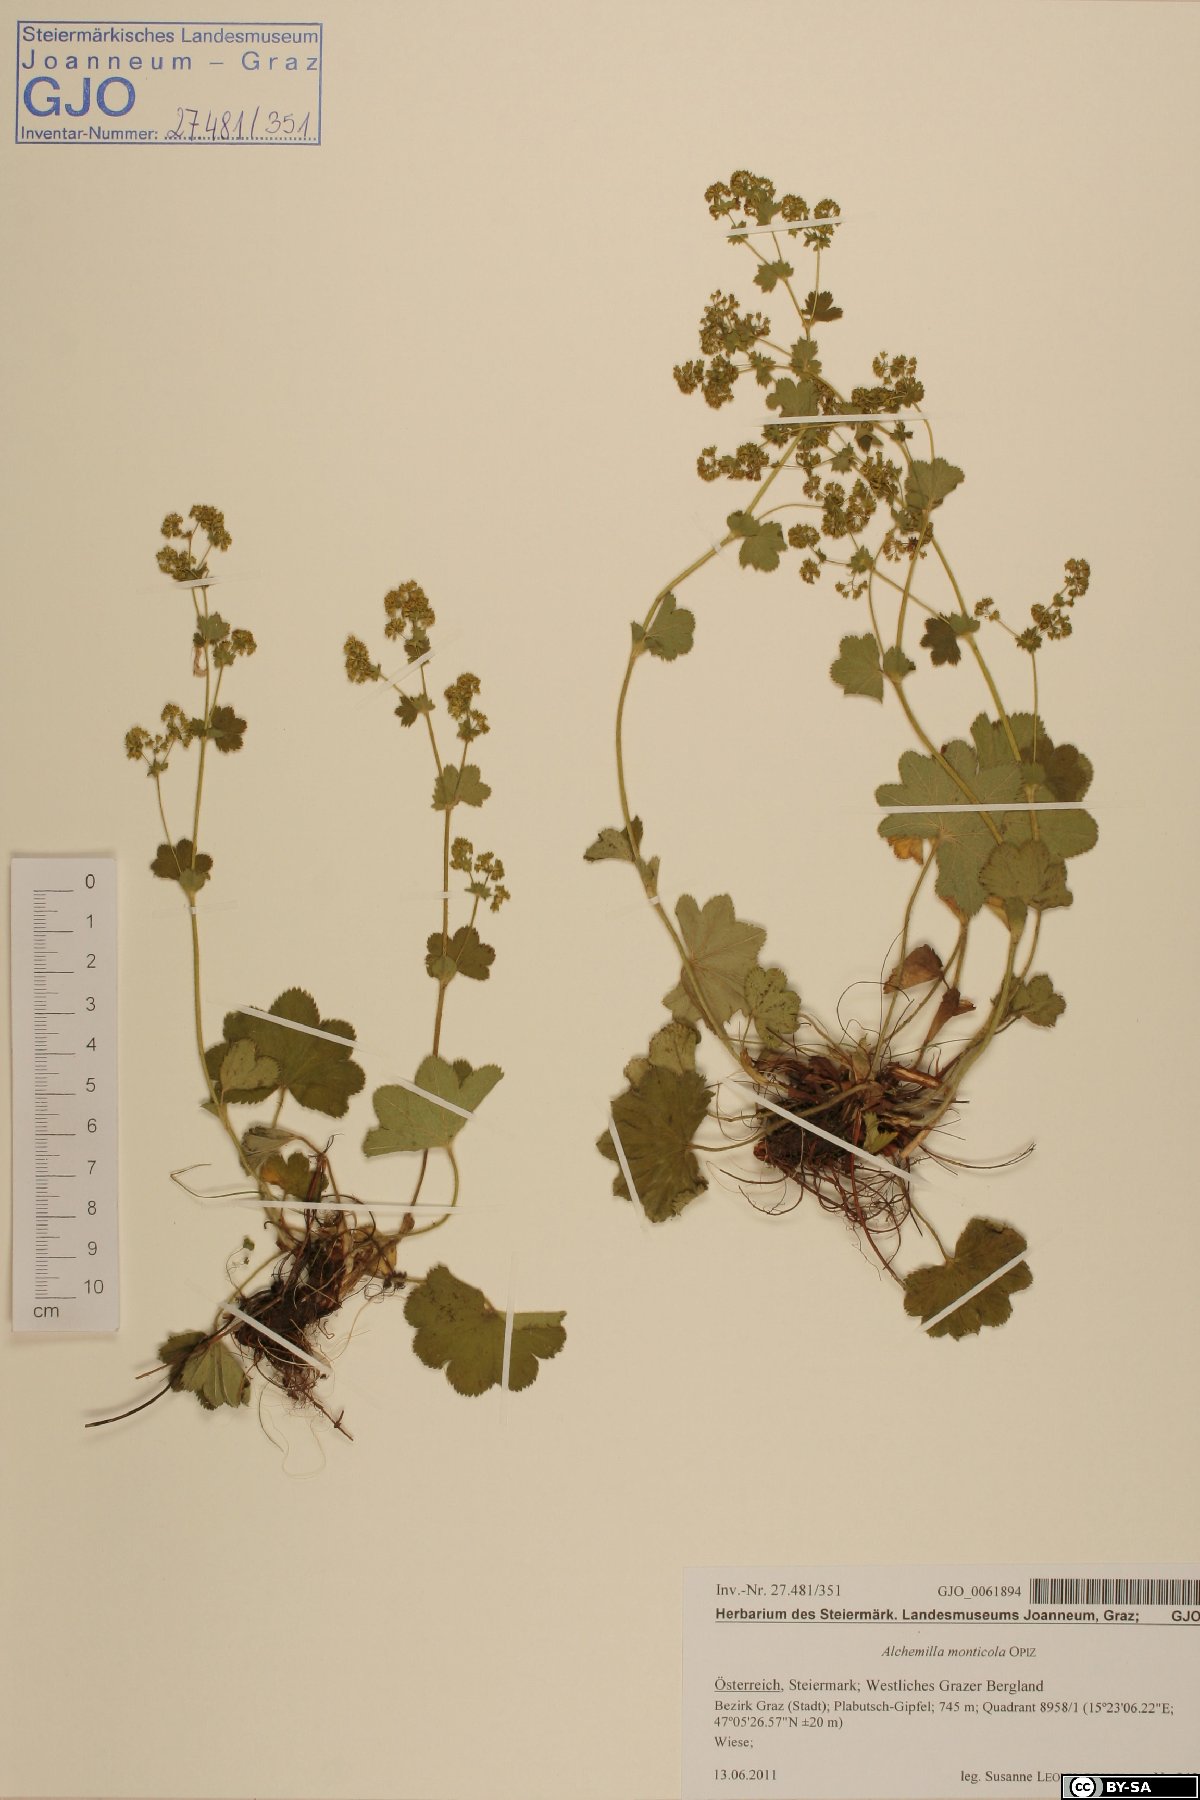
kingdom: Plantae
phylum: Tracheophyta
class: Magnoliopsida
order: Rosales
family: Rosaceae
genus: Alchemilla
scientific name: Alchemilla monticola
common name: Hairy lady's mantle
